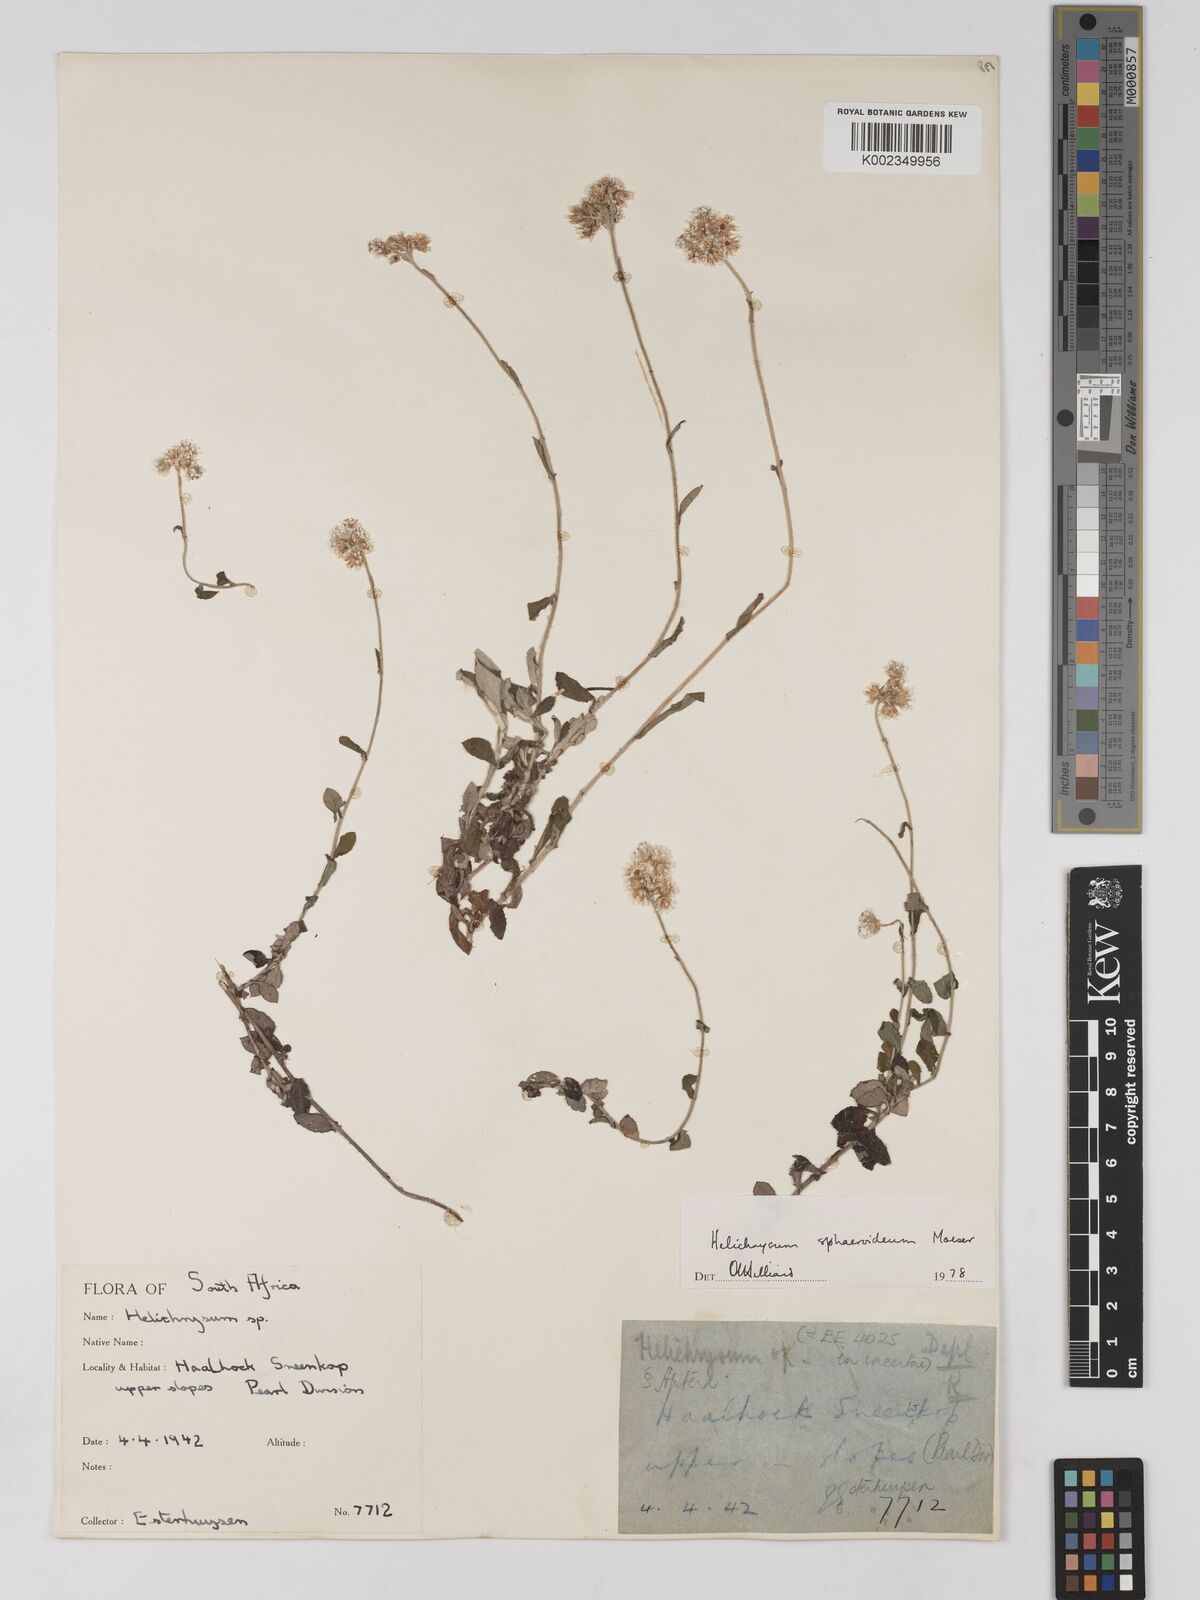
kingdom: Plantae
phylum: Tracheophyta
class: Magnoliopsida
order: Asterales
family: Asteraceae
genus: Helichrysum
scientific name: Helichrysum sphaeroideum
